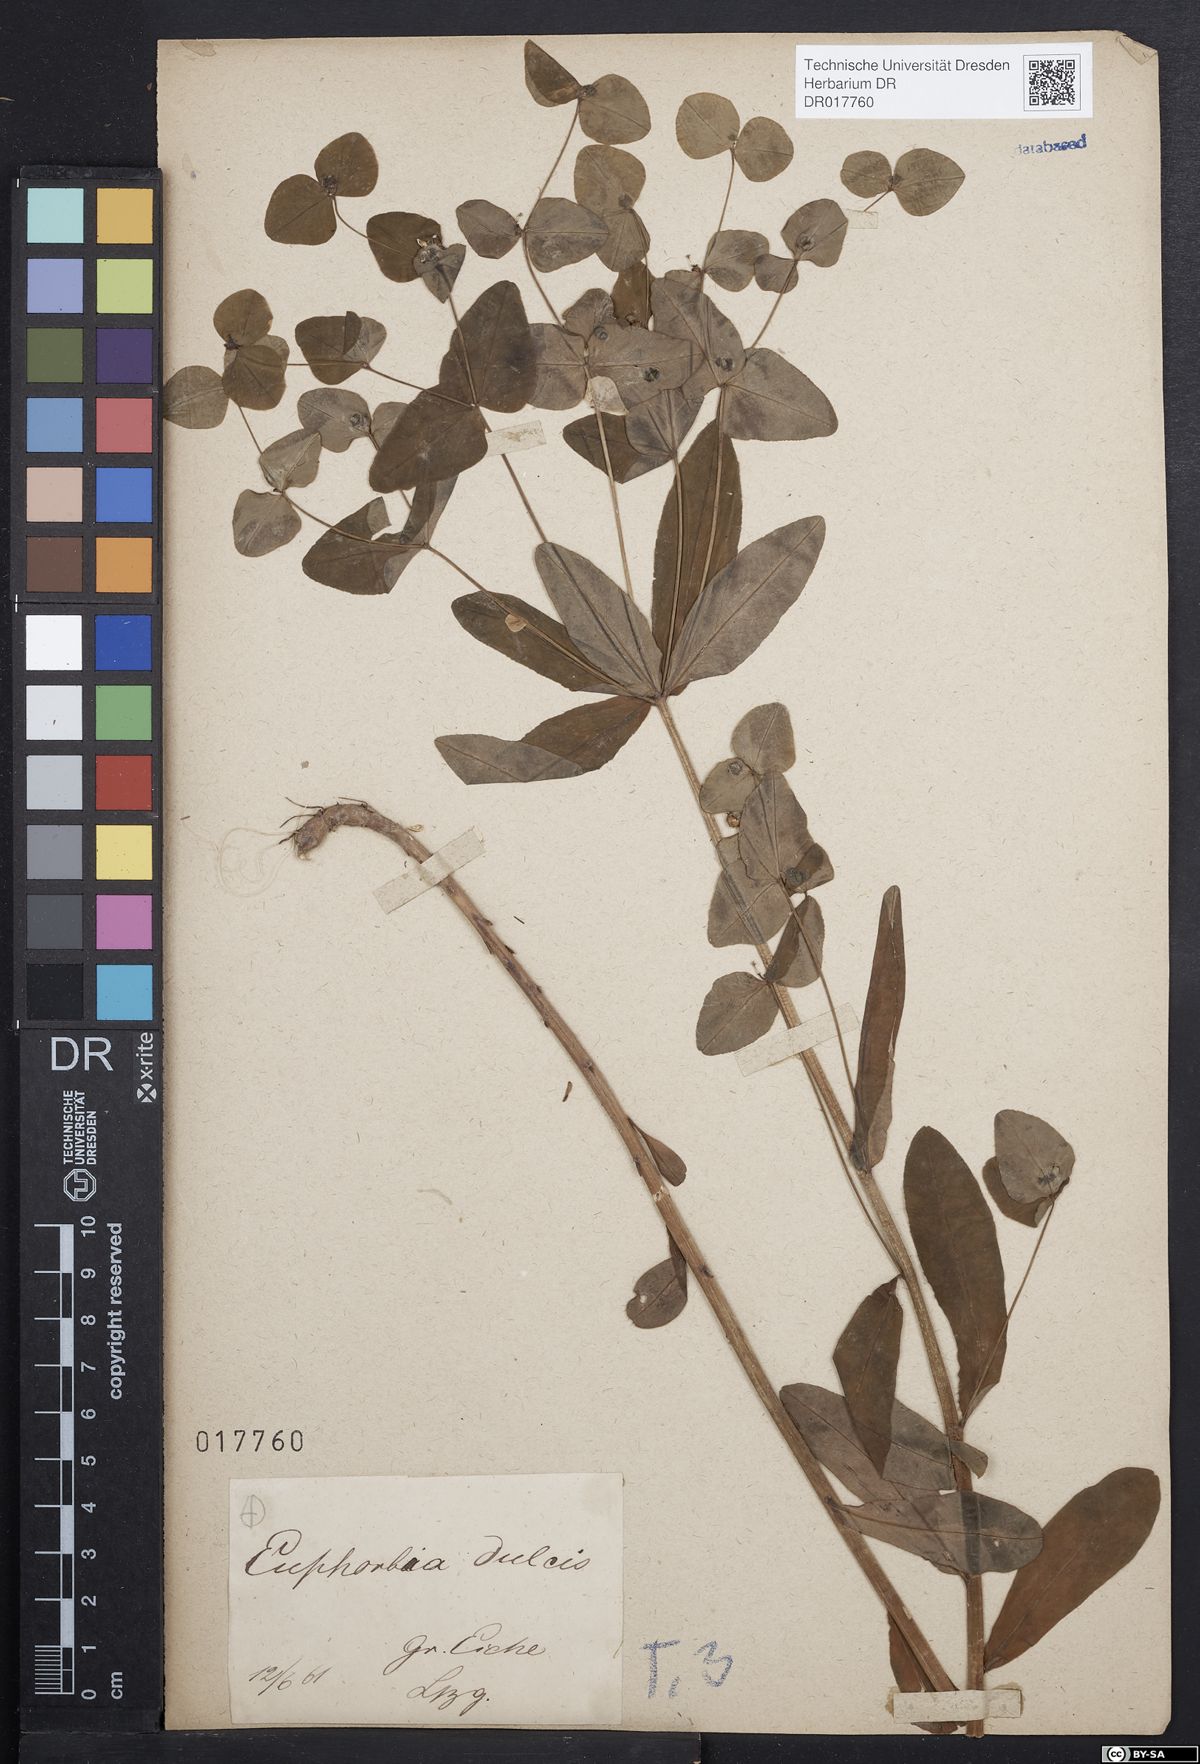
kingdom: Plantae
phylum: Tracheophyta
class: Magnoliopsida
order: Malpighiales
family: Euphorbiaceae
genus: Euphorbia
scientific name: Euphorbia dulcis
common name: Sweet spurge
